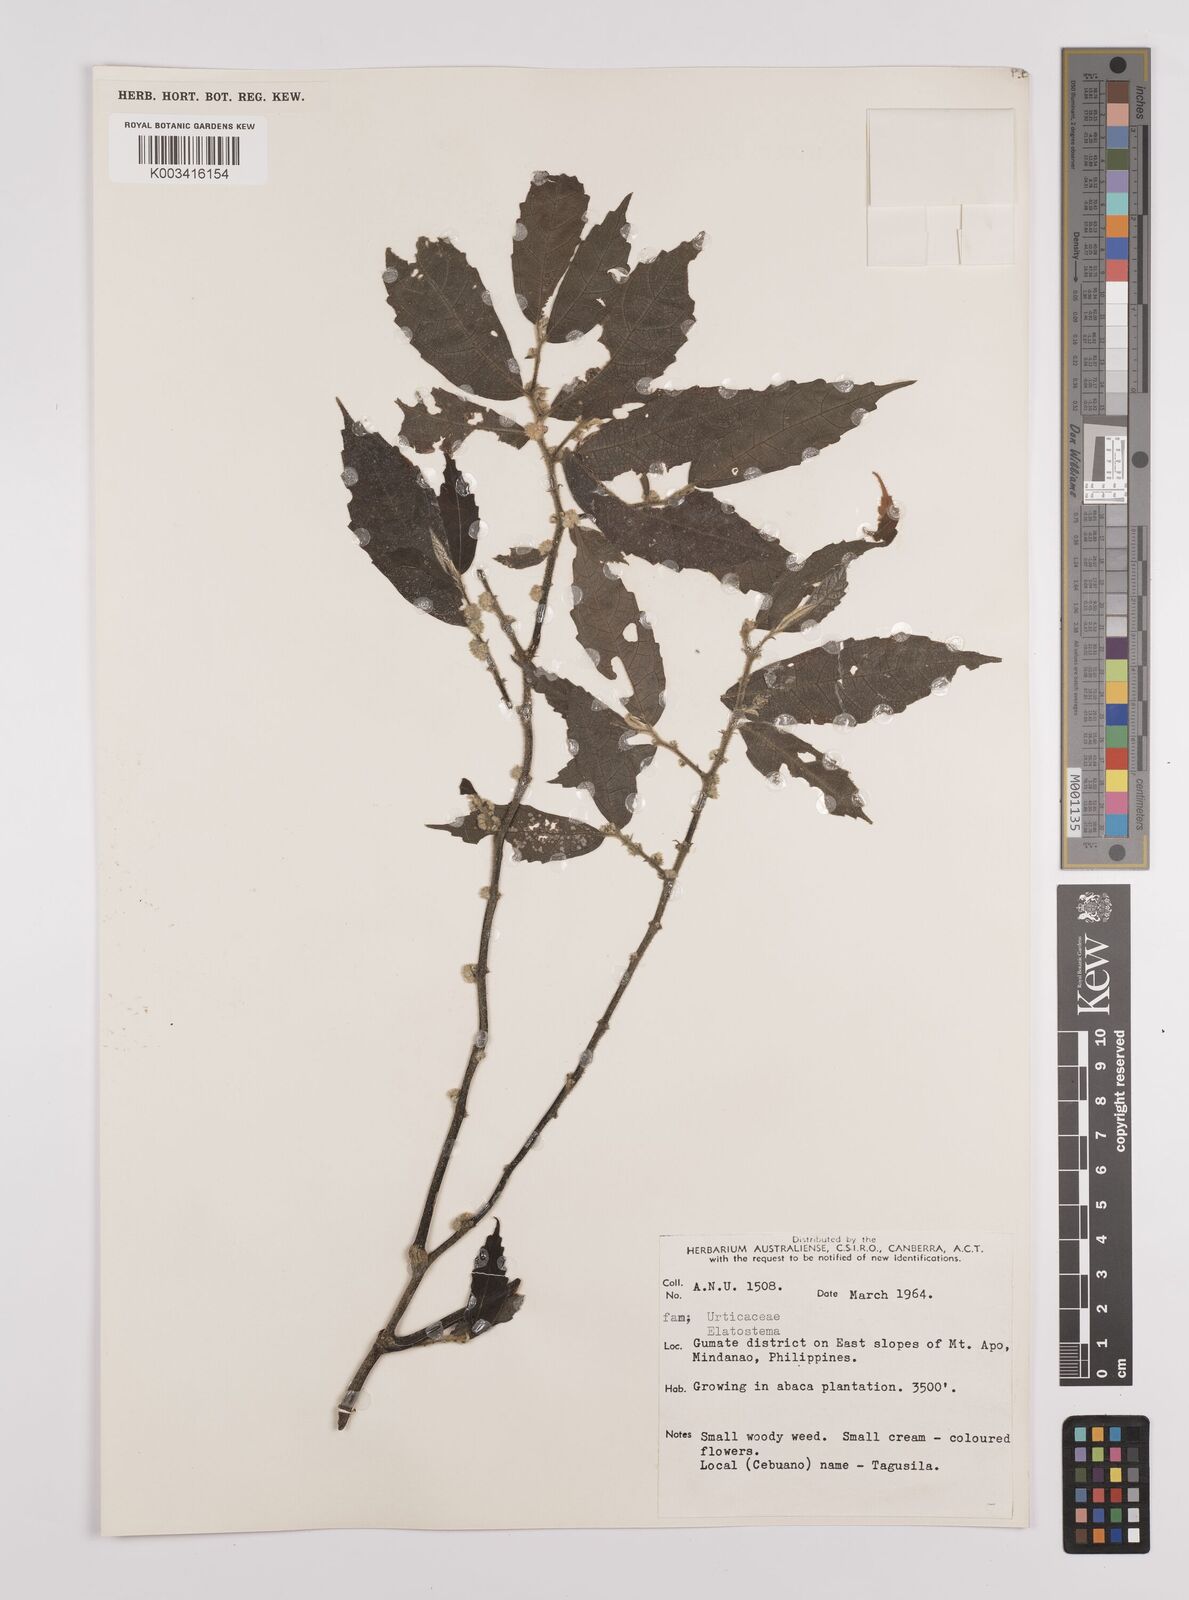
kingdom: Plantae
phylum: Tracheophyta
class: Magnoliopsida
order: Rosales
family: Urticaceae
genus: Elatostema
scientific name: Elatostema
